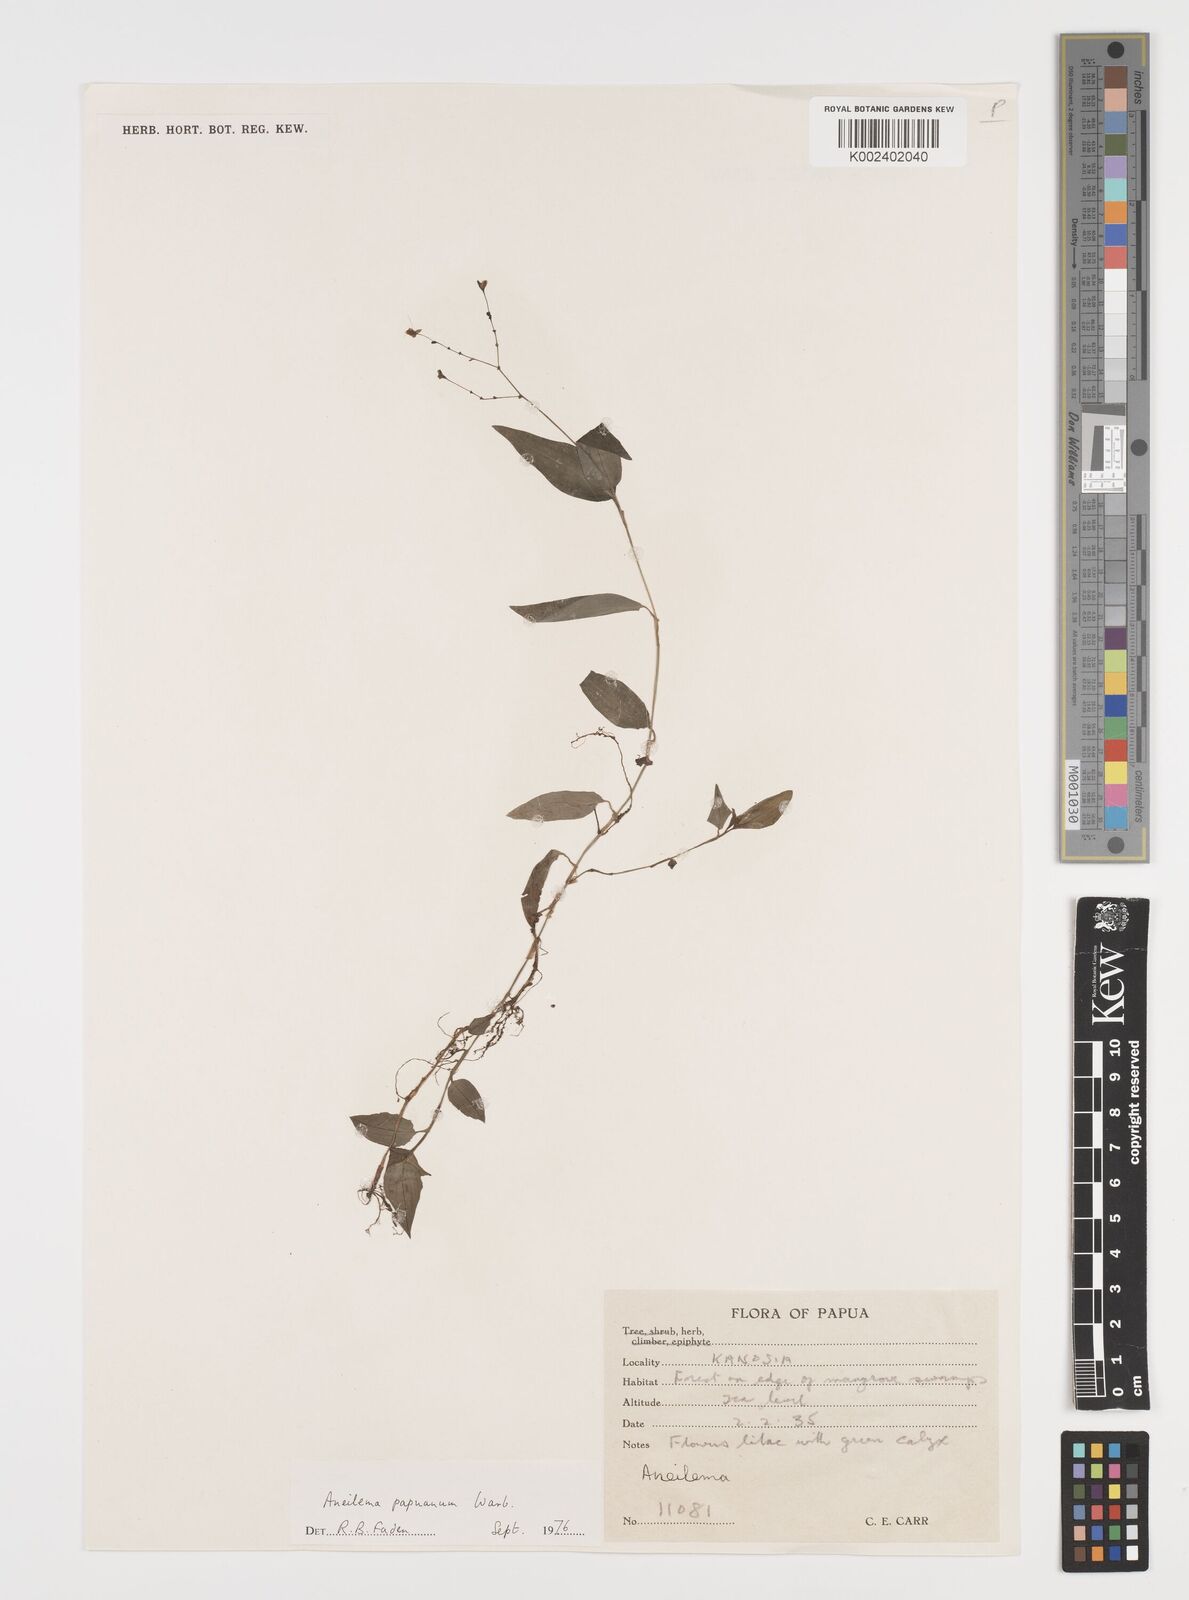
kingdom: Plantae
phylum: Tracheophyta
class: Liliopsida
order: Commelinales
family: Commelinaceae
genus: Aneilema
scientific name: Aneilema acuminatum
